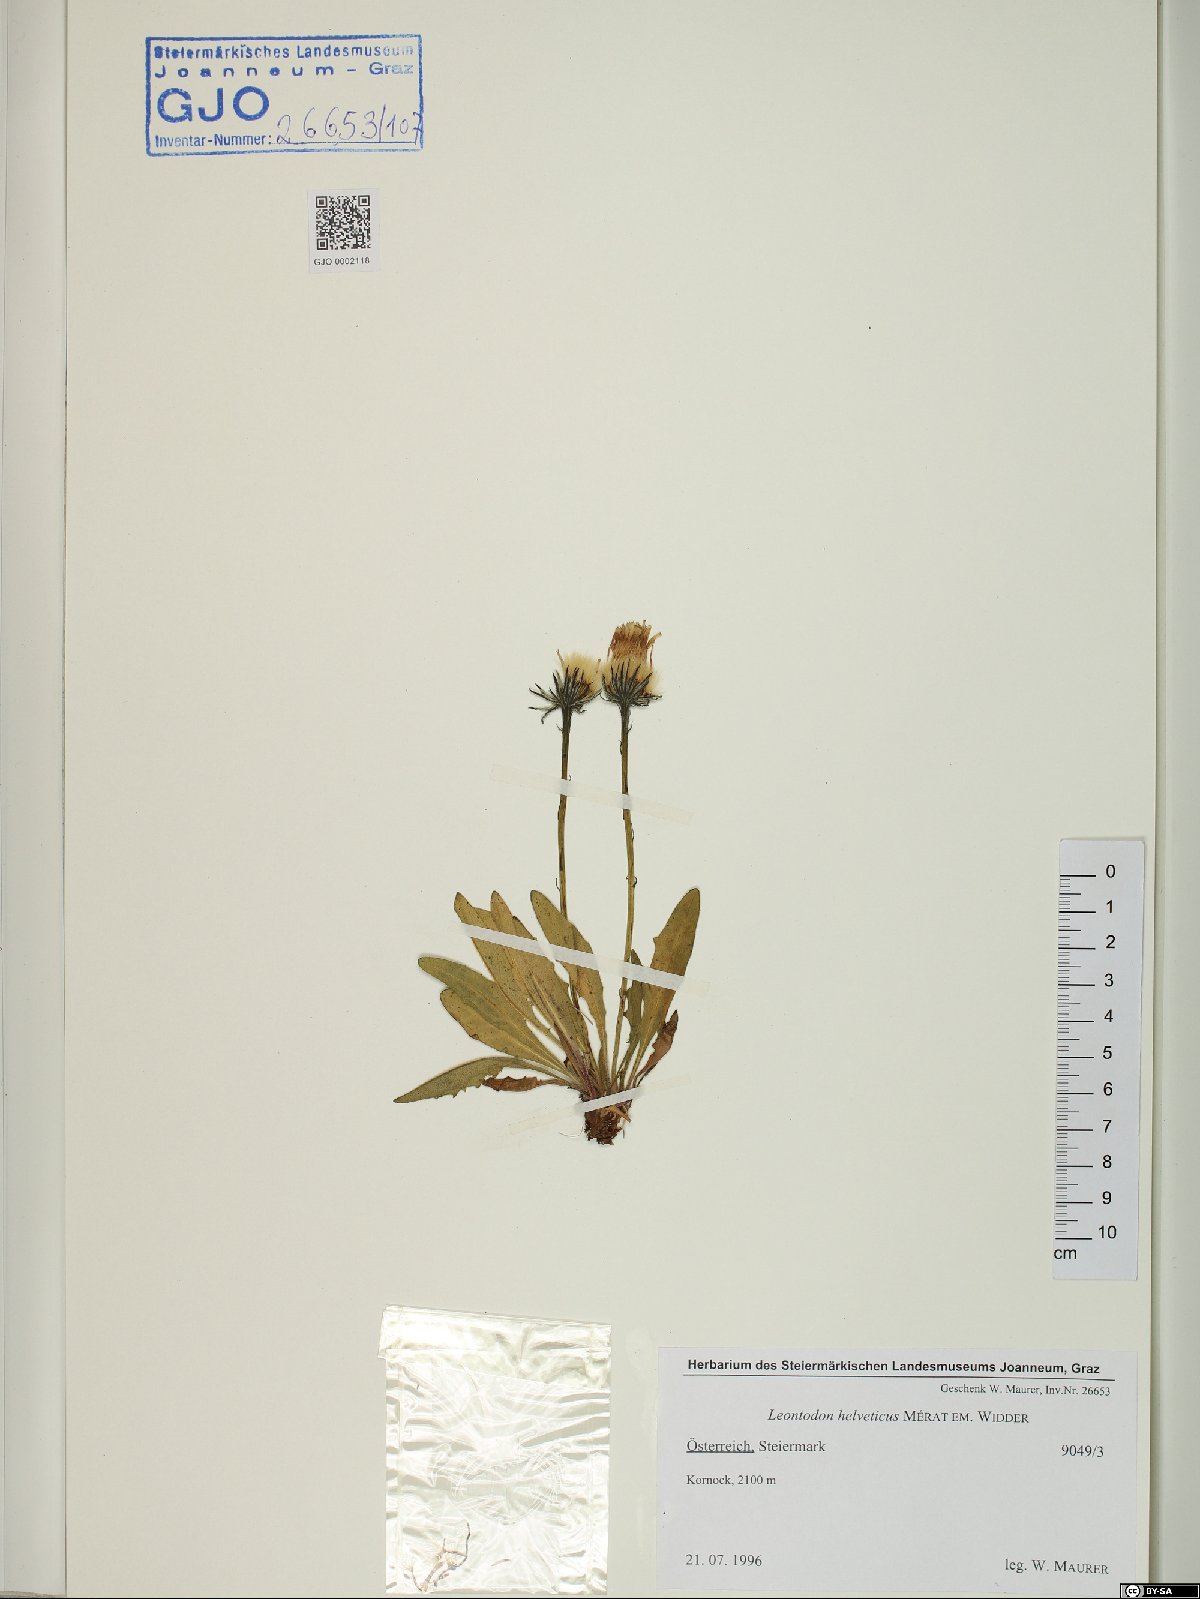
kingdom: Plantae
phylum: Tracheophyta
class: Magnoliopsida
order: Asterales
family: Asteraceae
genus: Scorzoneroides
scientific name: Scorzoneroides helvetica
